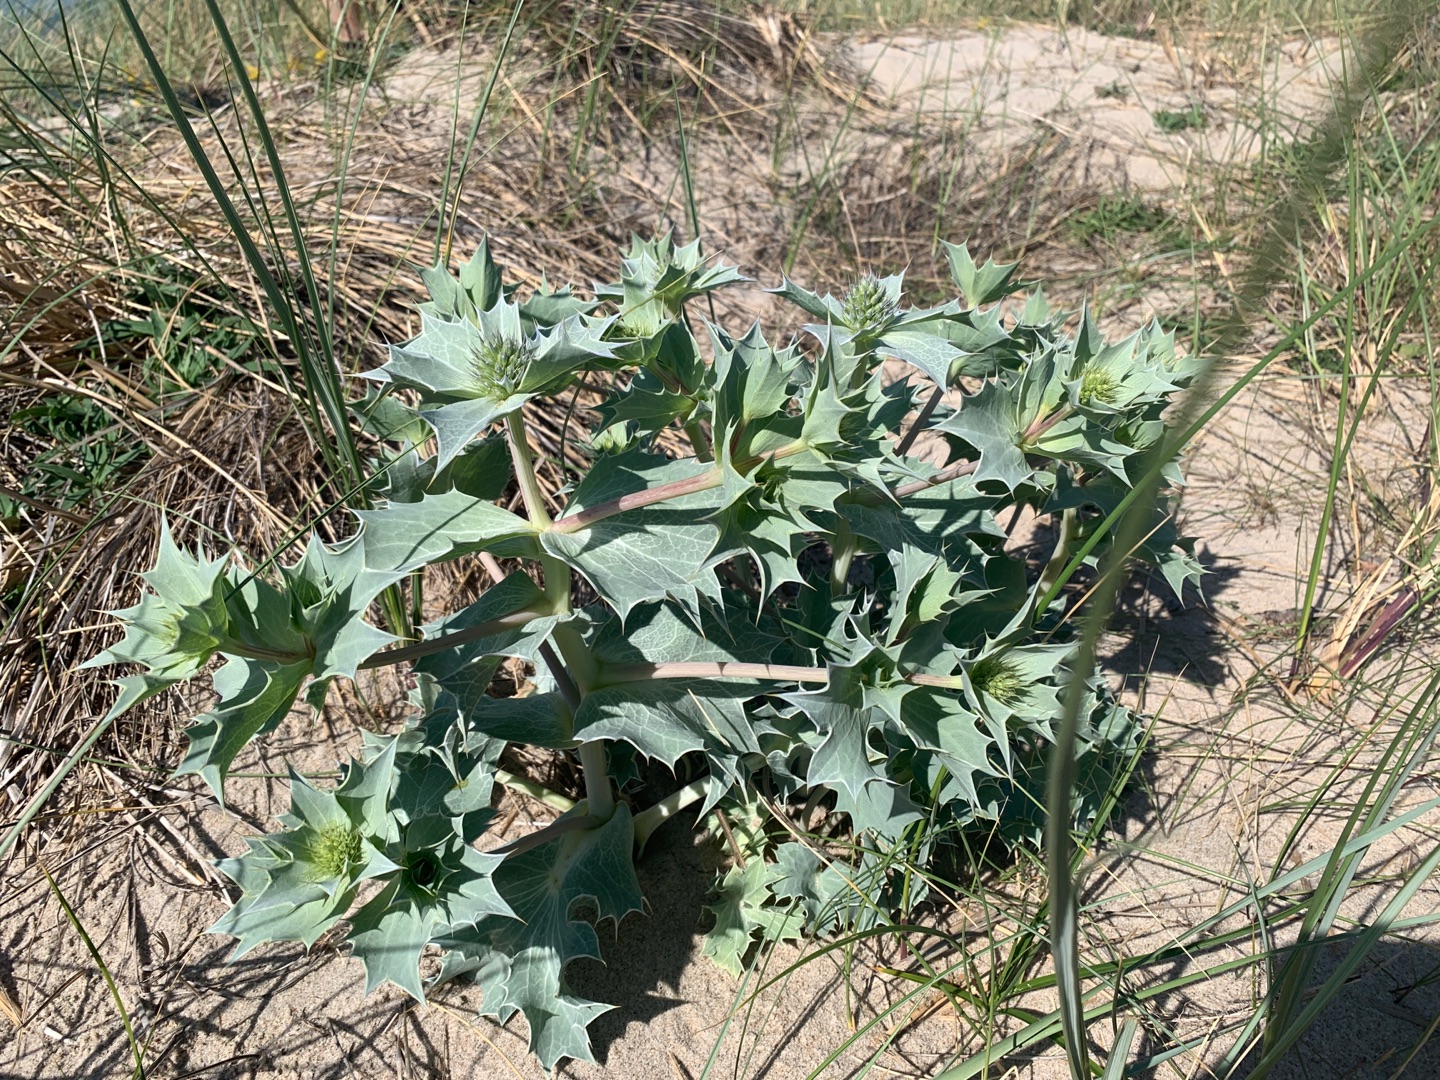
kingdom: Plantae
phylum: Tracheophyta
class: Magnoliopsida
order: Apiales
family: Apiaceae
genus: Eryngium
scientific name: Eryngium maritimum
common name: Strand-mandstro
